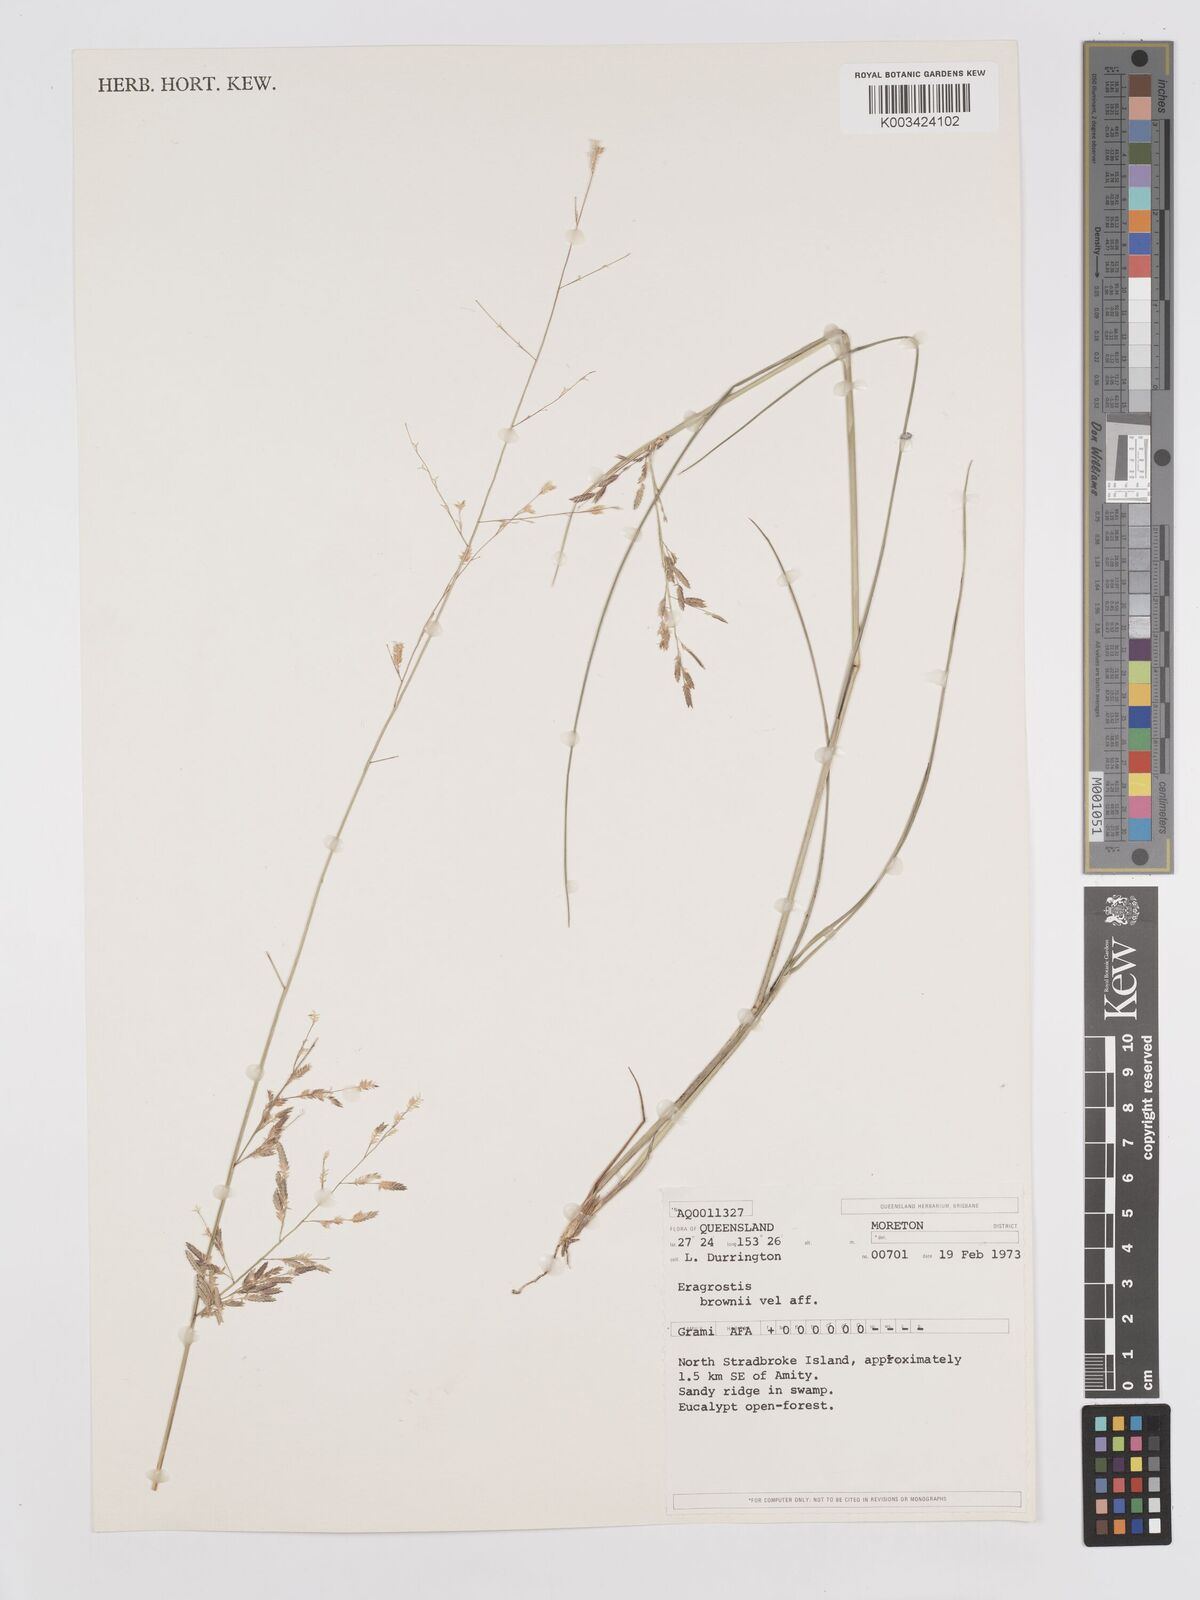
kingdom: Plantae
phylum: Tracheophyta
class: Liliopsida
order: Poales
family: Poaceae
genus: Eragrostis
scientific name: Eragrostis brownii
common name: Lovegrass
